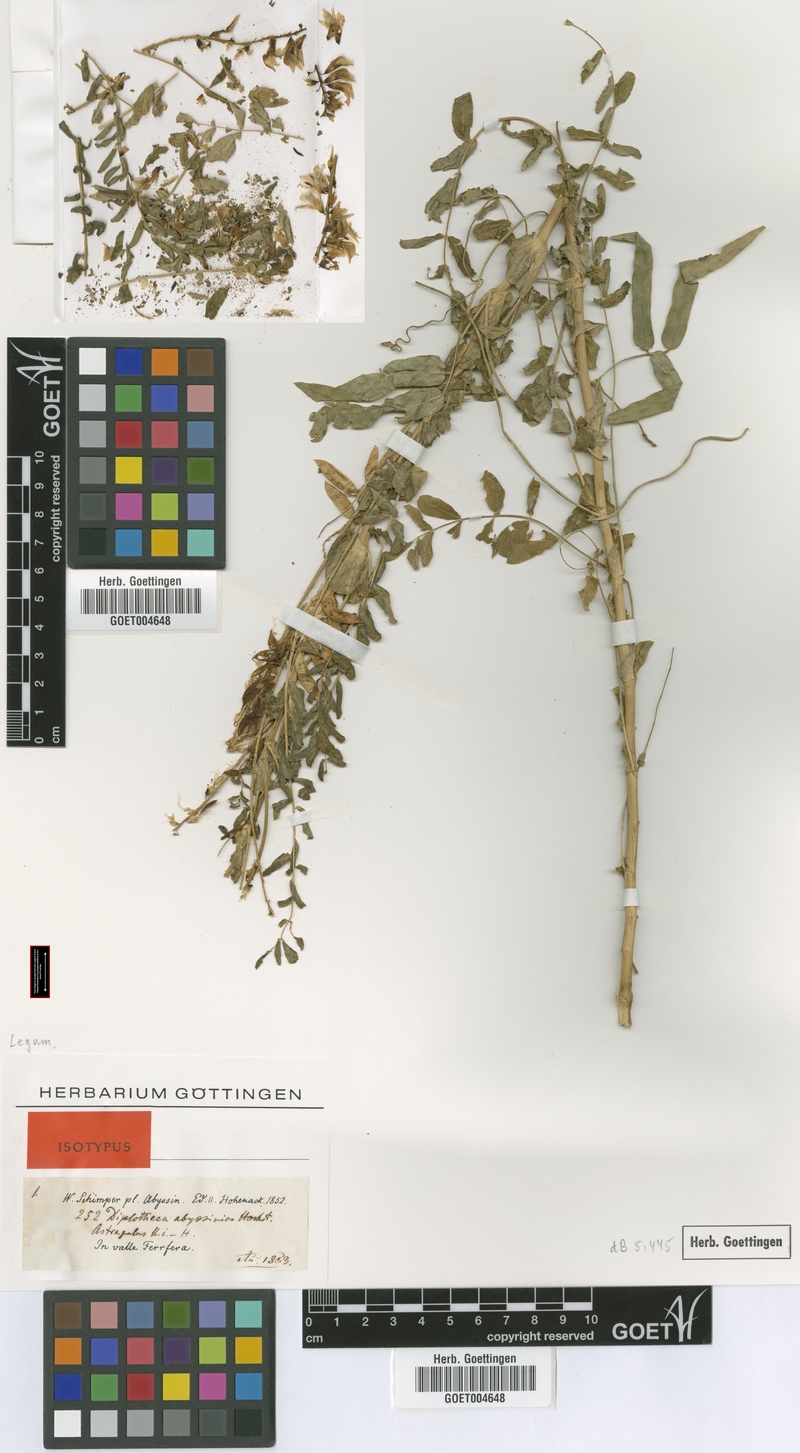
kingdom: Plantae
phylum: Tracheophyta
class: Magnoliopsida
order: Fabales
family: Fabaceae
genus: Astragalus
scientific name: Astragalus atropilosulus
